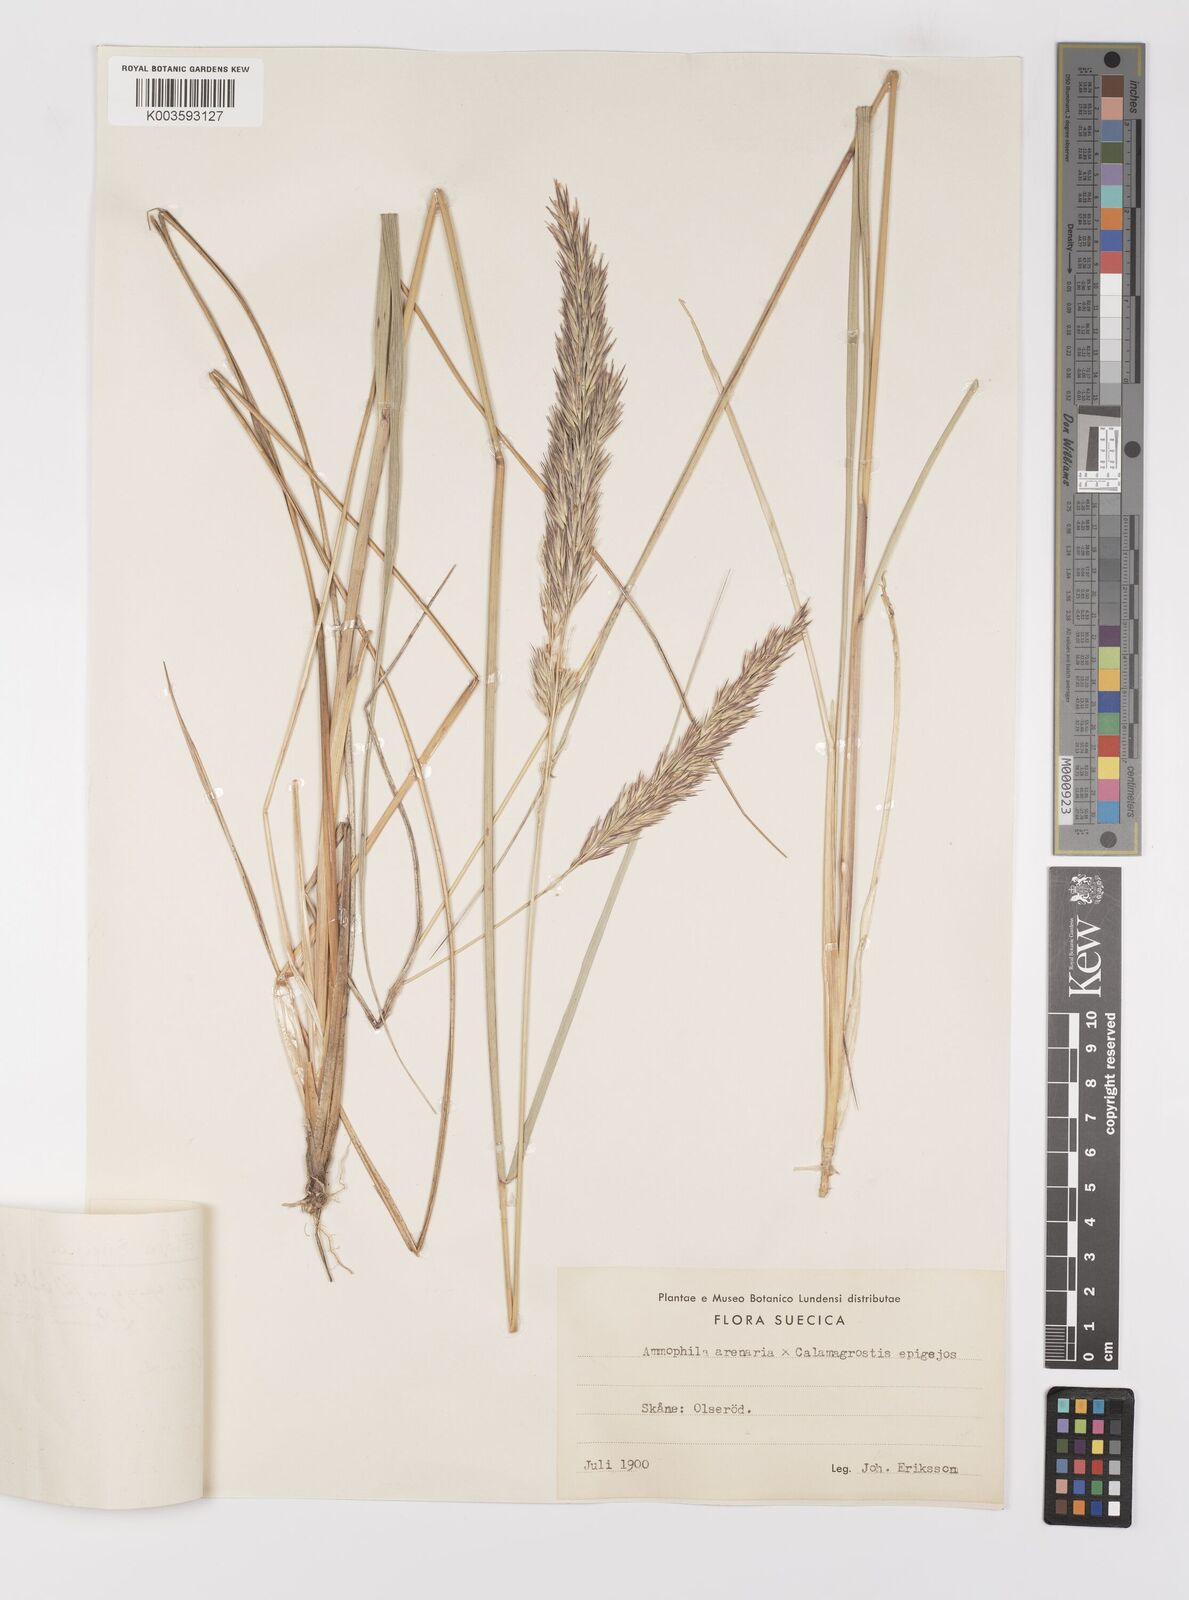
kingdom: Plantae
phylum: Tracheophyta
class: Liliopsida
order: Poales
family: Poaceae
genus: Calamagrostis
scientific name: Calamagrostis baltica
